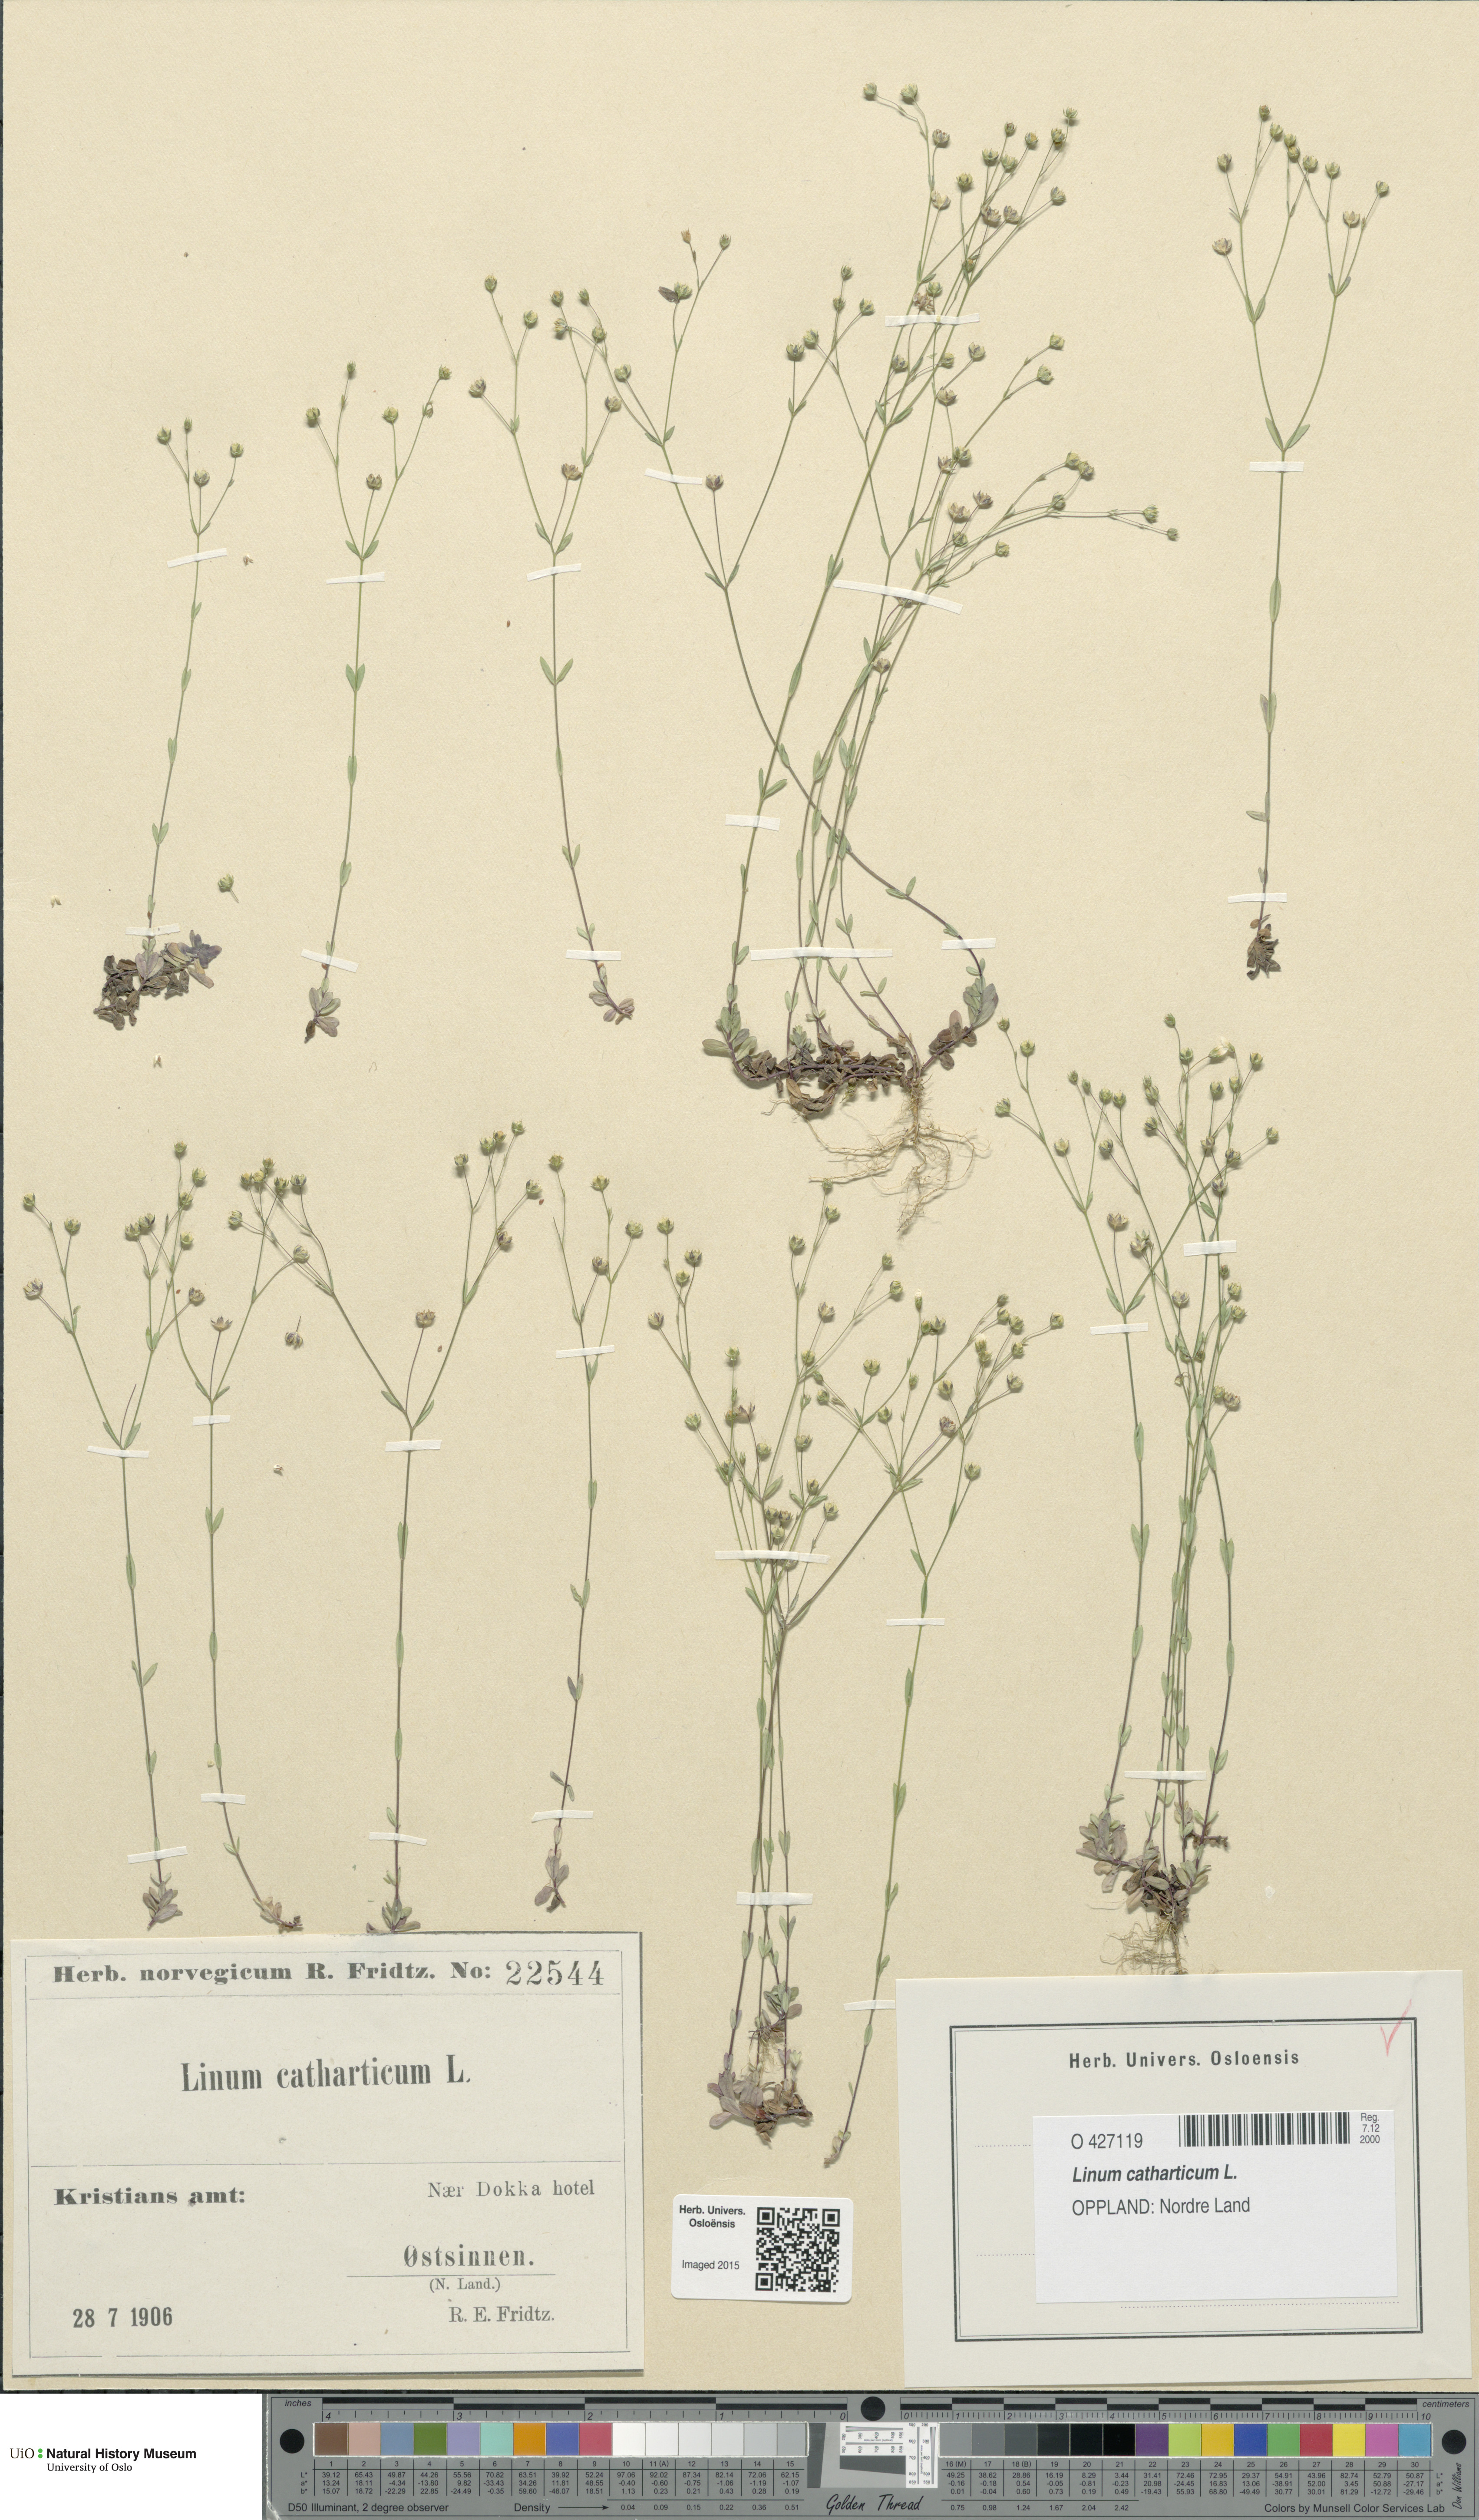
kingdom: Plantae
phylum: Tracheophyta
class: Magnoliopsida
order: Malpighiales
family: Linaceae
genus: Linum
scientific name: Linum catharticum
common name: Fairy flax
